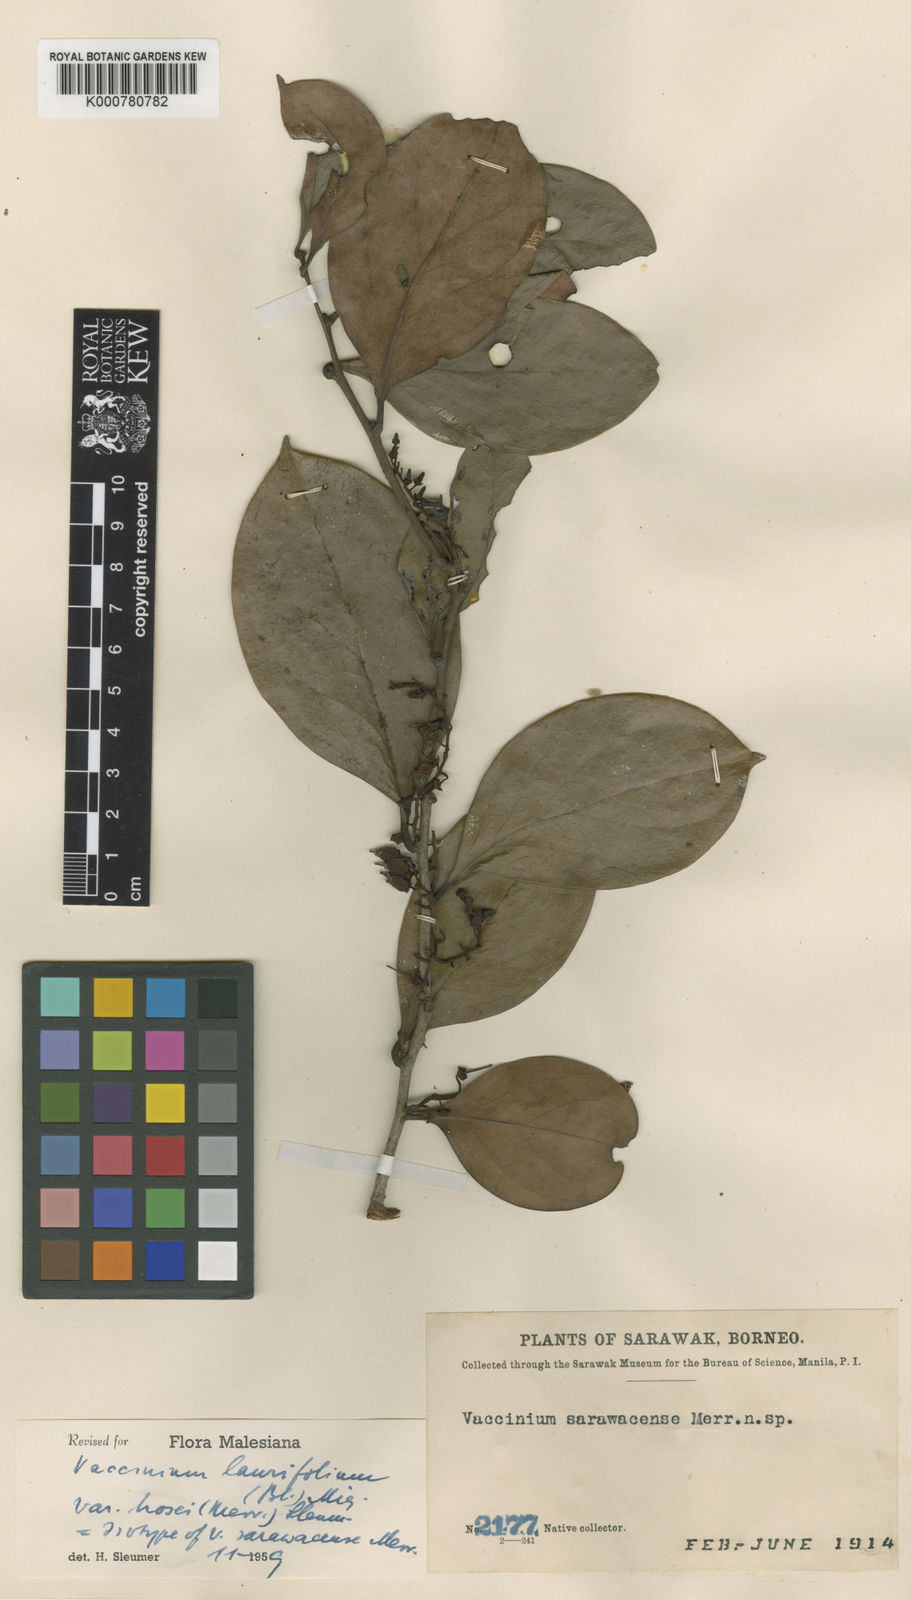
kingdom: Plantae
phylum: Tracheophyta
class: Magnoliopsida
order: Ericales
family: Ericaceae
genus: Vaccinium
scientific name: Vaccinium laurifolium
